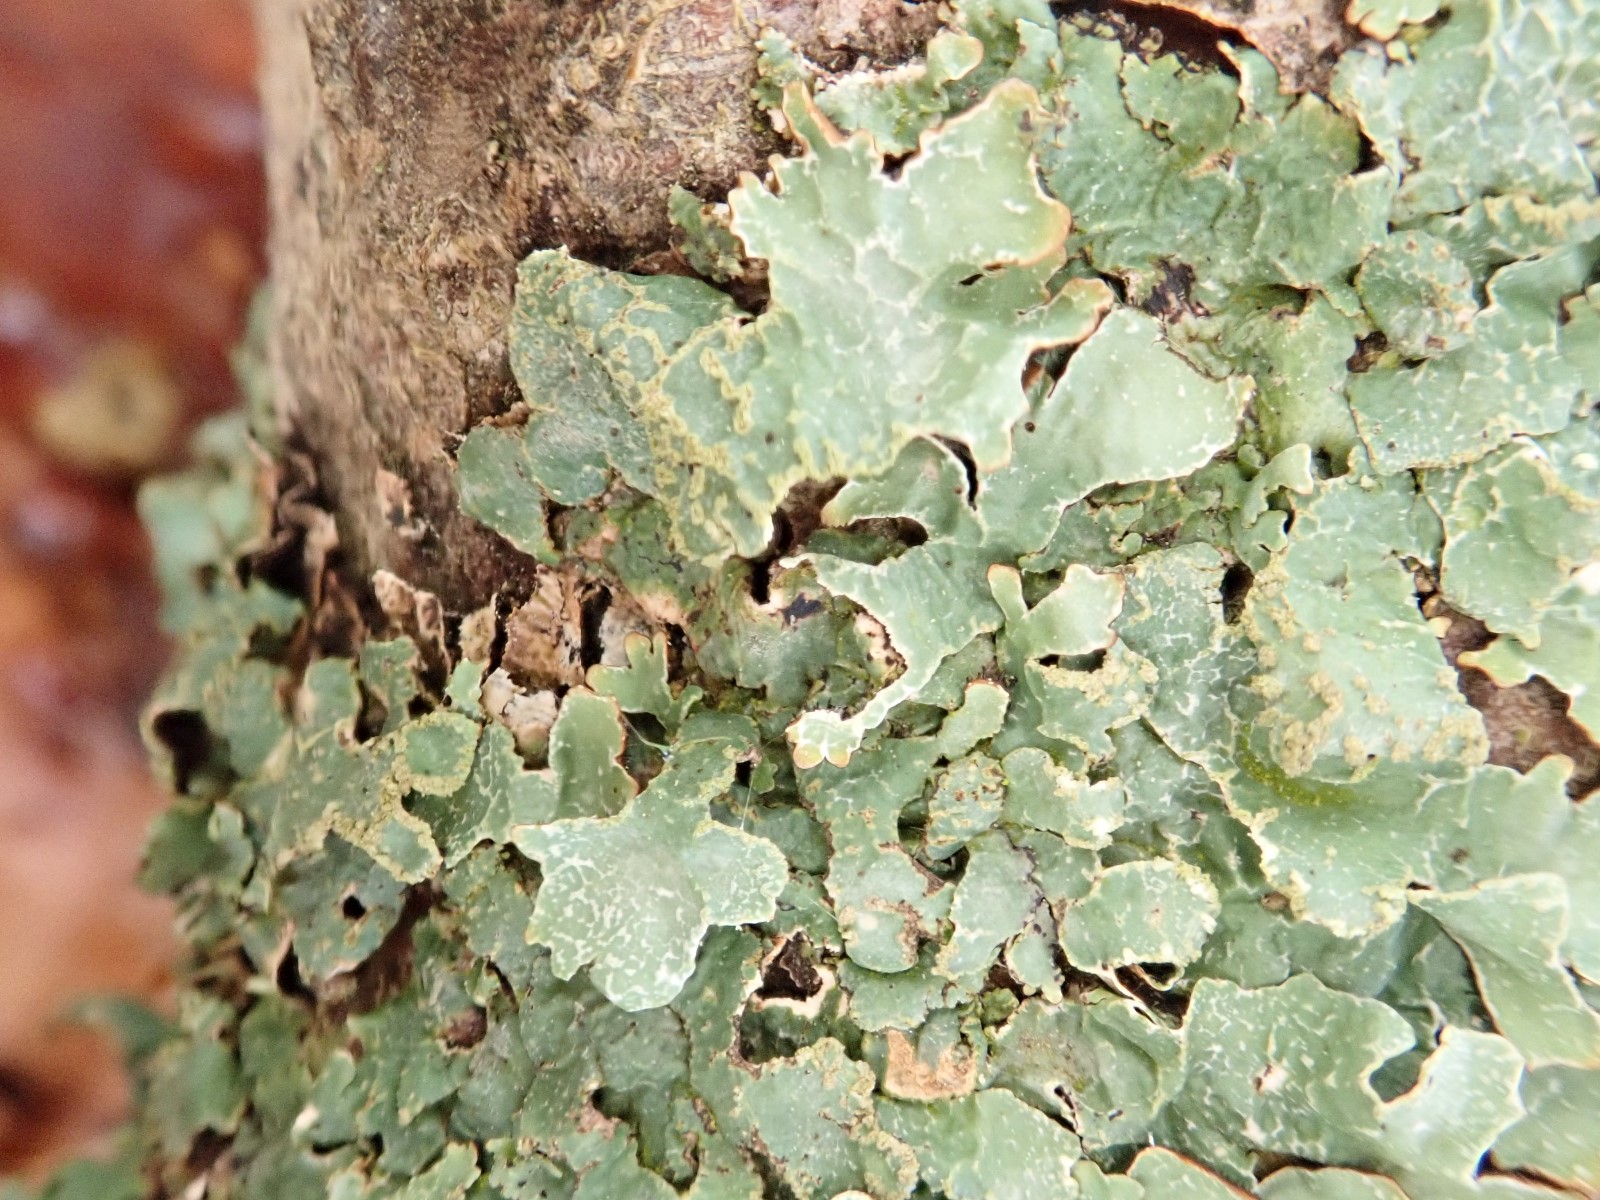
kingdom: Fungi
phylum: Ascomycota
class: Lecanoromycetes
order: Lecanorales
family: Parmeliaceae
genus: Parmelia
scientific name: Parmelia sulcata
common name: rynket skållav
